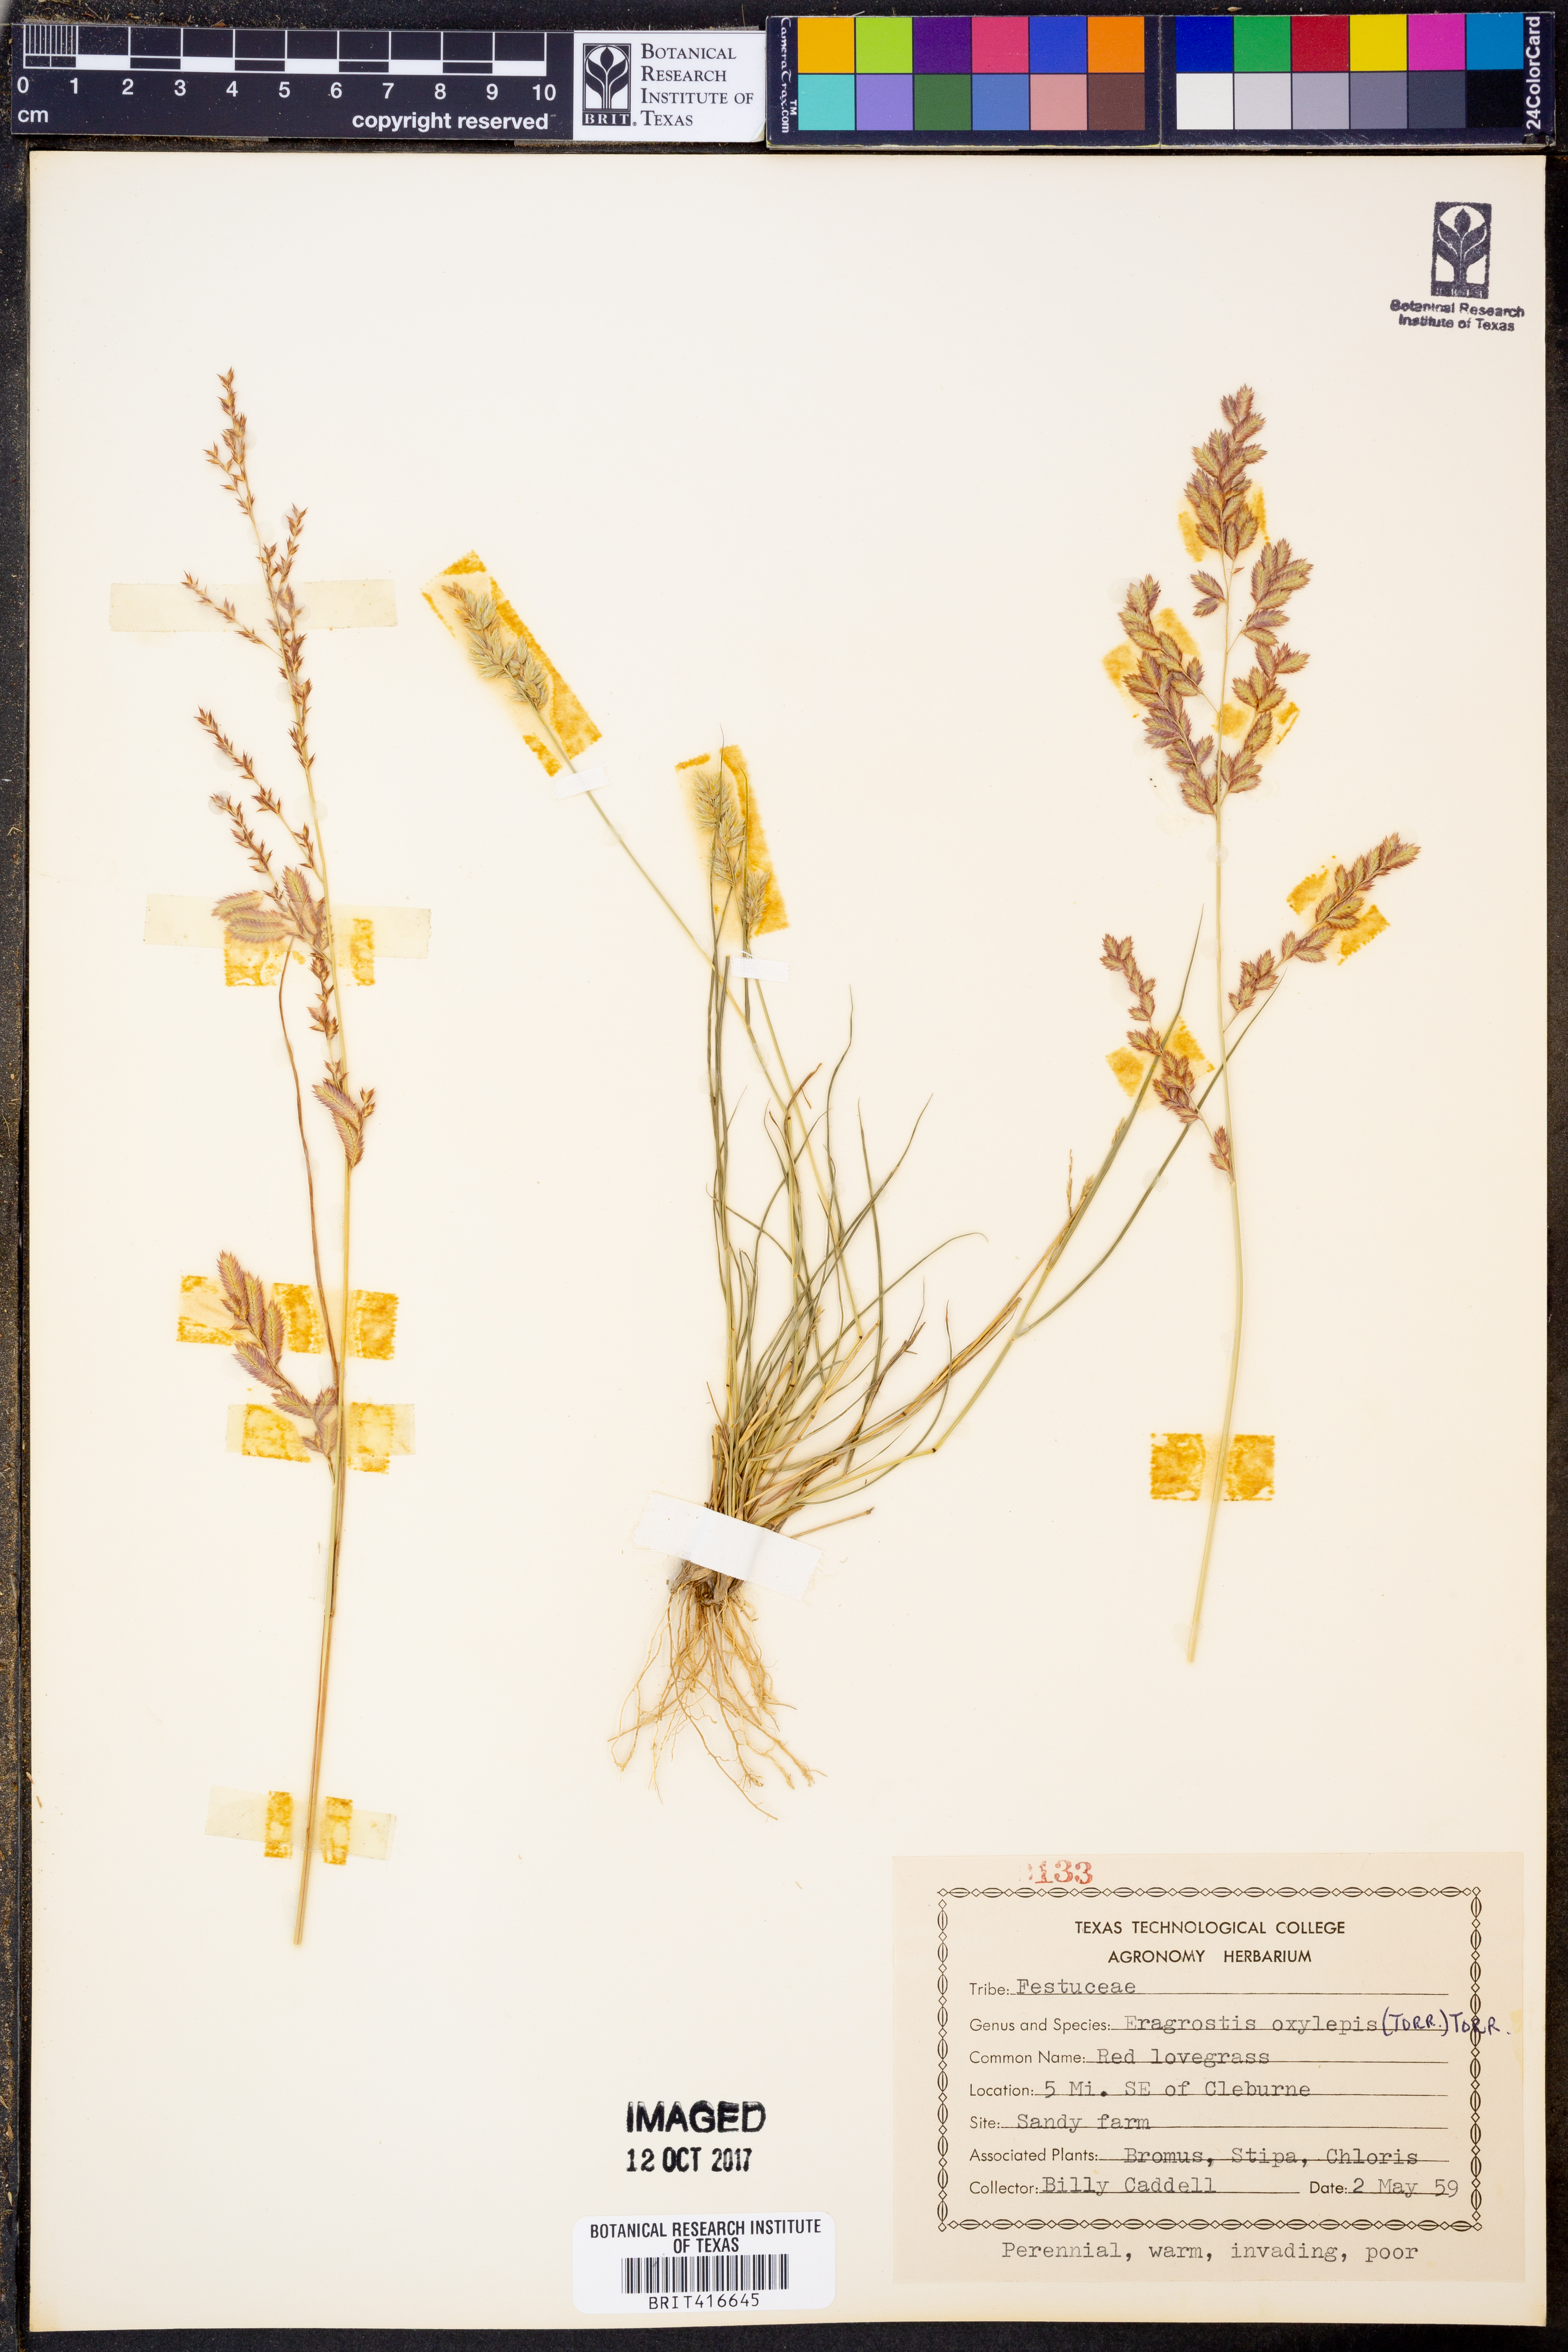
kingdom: Plantae
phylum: Tracheophyta
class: Liliopsida
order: Poales
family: Poaceae
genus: Eragrostis
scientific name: Eragrostis secundiflora
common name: Red love grass
